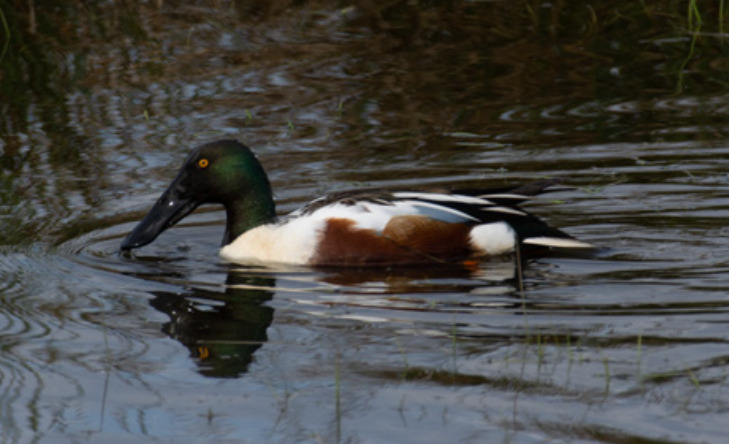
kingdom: Animalia
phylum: Chordata
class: Aves
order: Anseriformes
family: Anatidae
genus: Spatula
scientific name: Spatula clypeata
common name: Skeand
